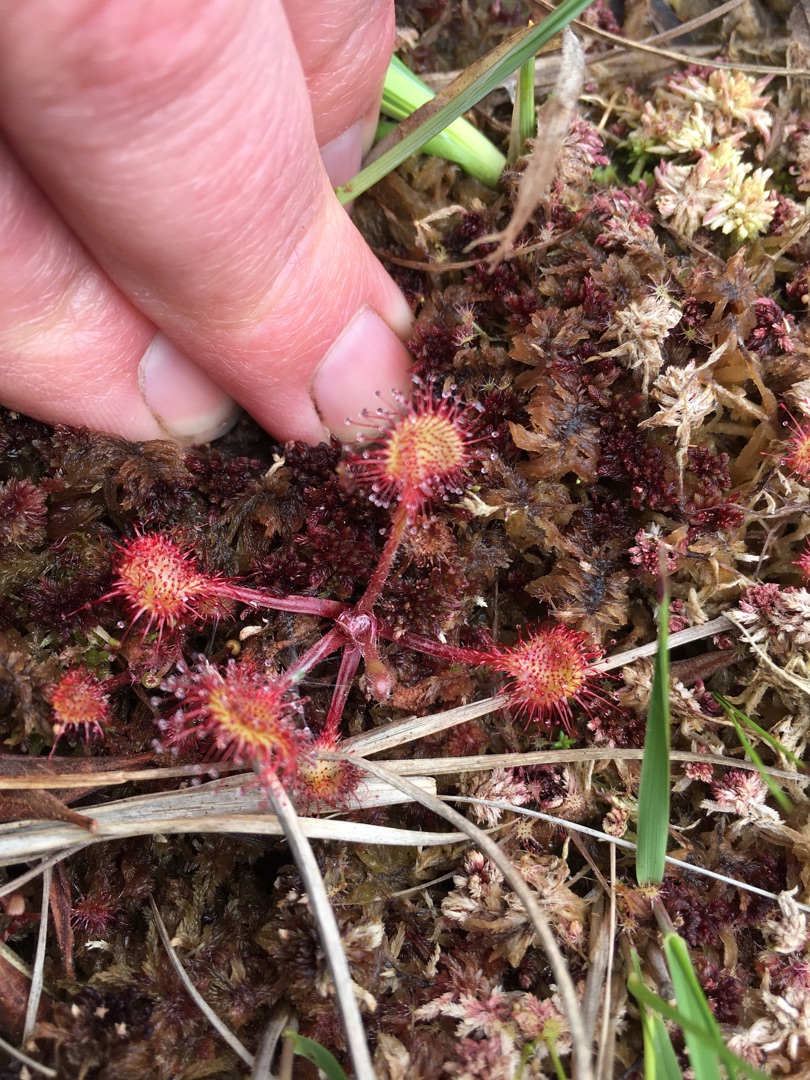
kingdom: Plantae
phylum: Tracheophyta
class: Magnoliopsida
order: Caryophyllales
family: Droseraceae
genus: Drosera
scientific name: Drosera rotundifolia
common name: Rundbladet soldug
